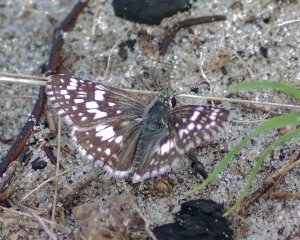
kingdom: Animalia
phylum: Arthropoda
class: Insecta
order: Lepidoptera
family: Hesperiidae
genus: Pyrgus
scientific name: Pyrgus
